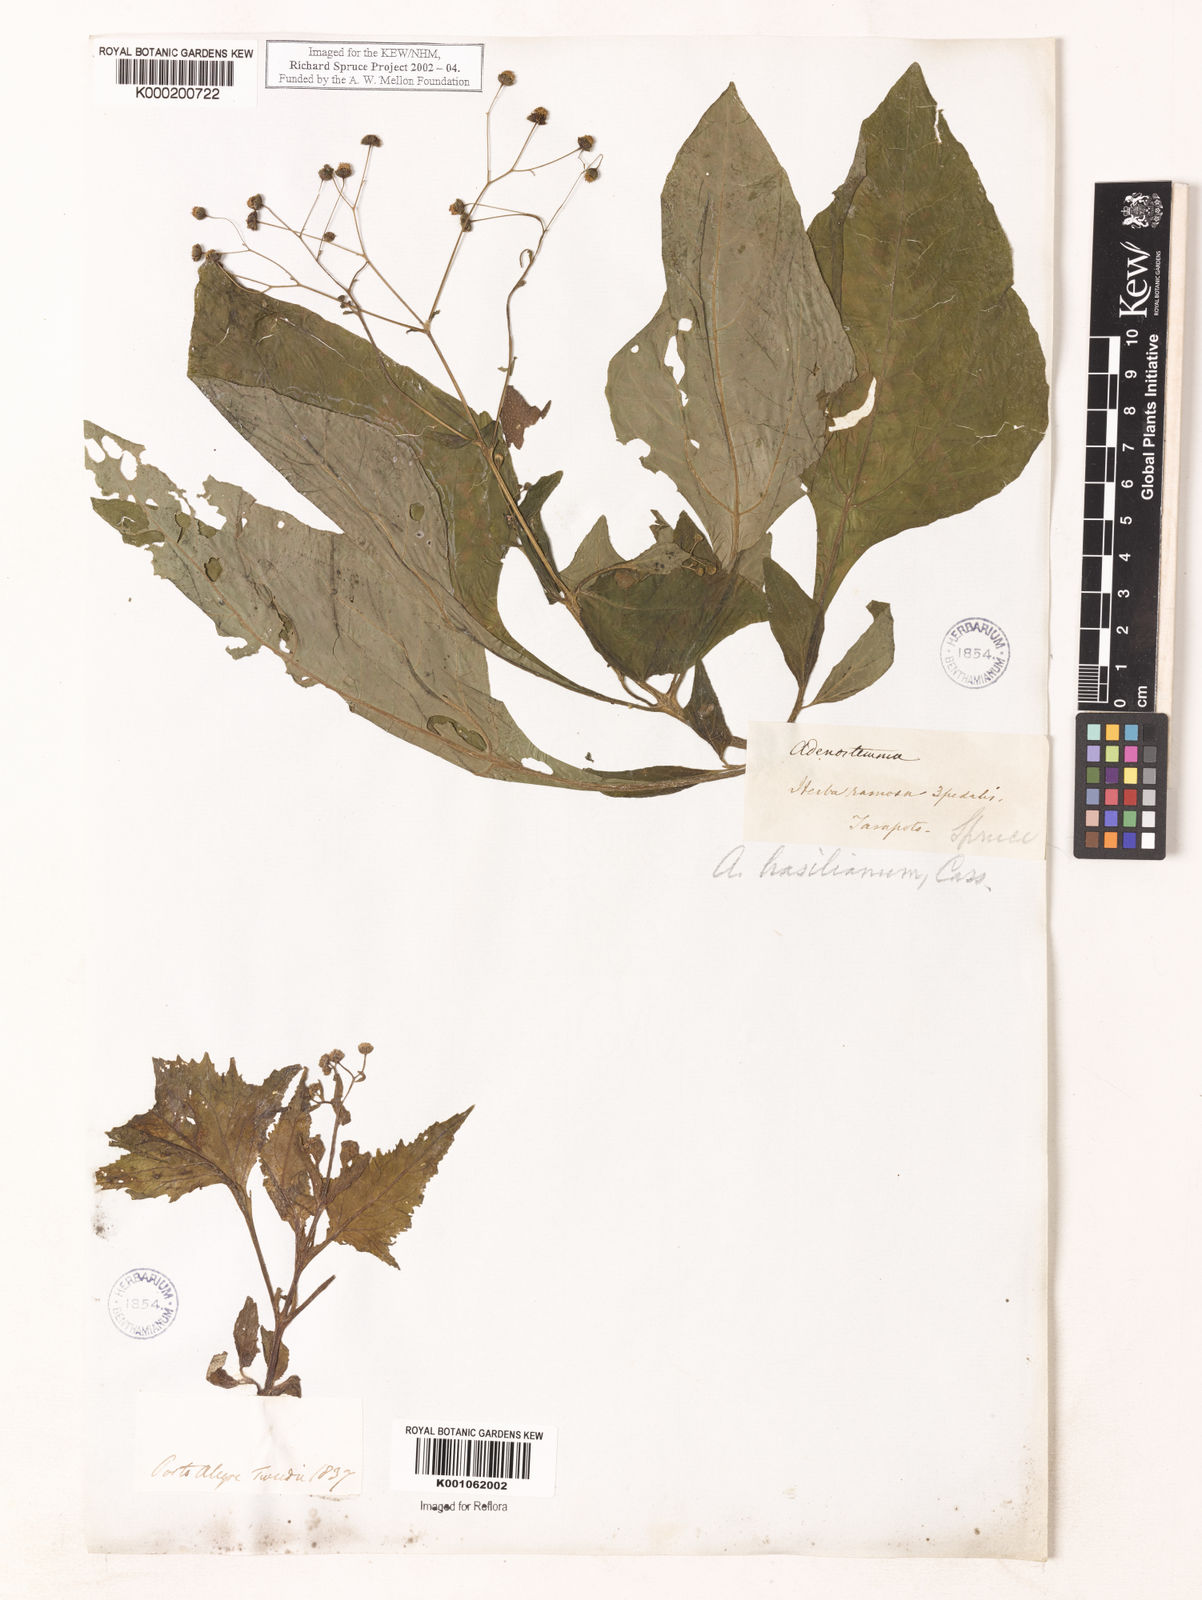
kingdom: Plantae
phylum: Tracheophyta
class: Magnoliopsida
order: Asterales
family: Asteraceae
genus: Adenostemma
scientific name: Adenostemma brasilianum
